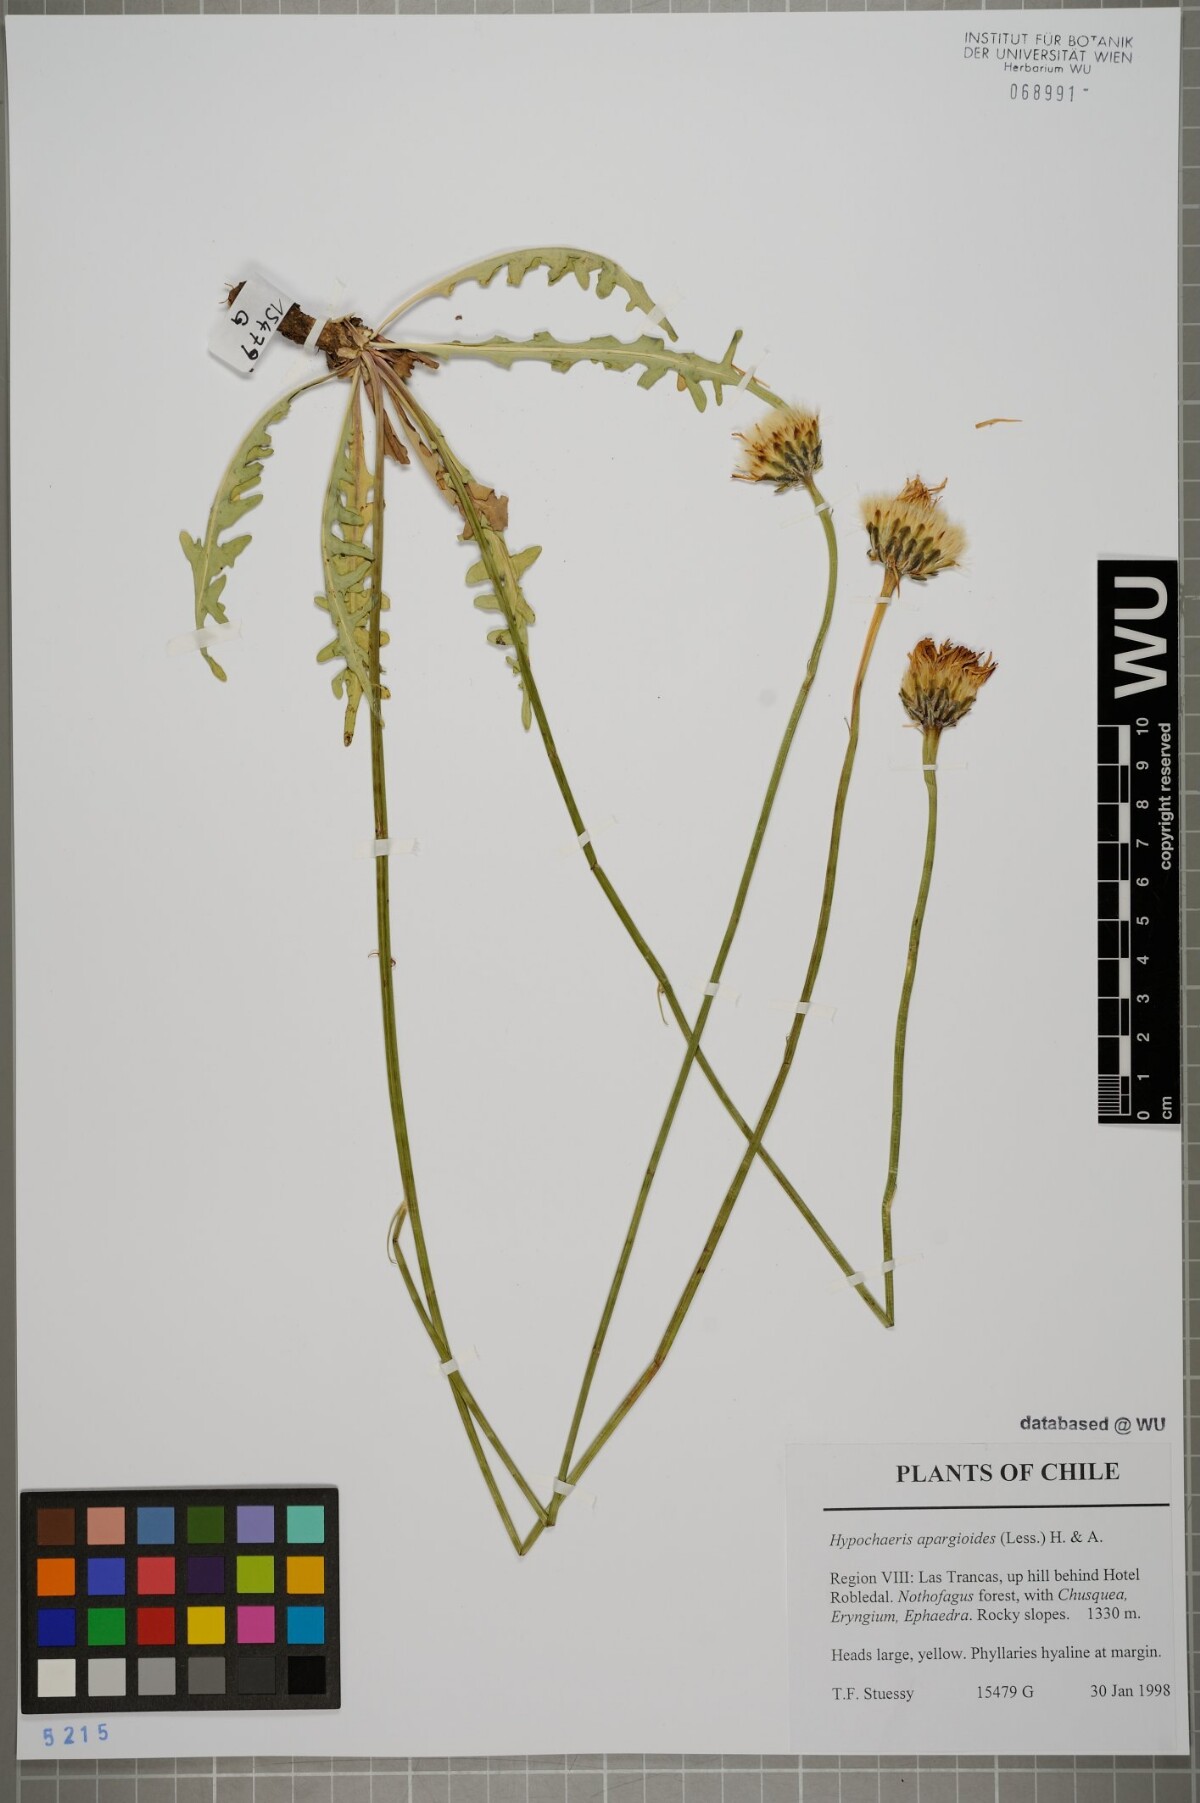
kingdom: Plantae
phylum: Tracheophyta
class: Magnoliopsida
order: Asterales
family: Asteraceae
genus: Hypochaeris
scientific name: Hypochaeris apargioides
